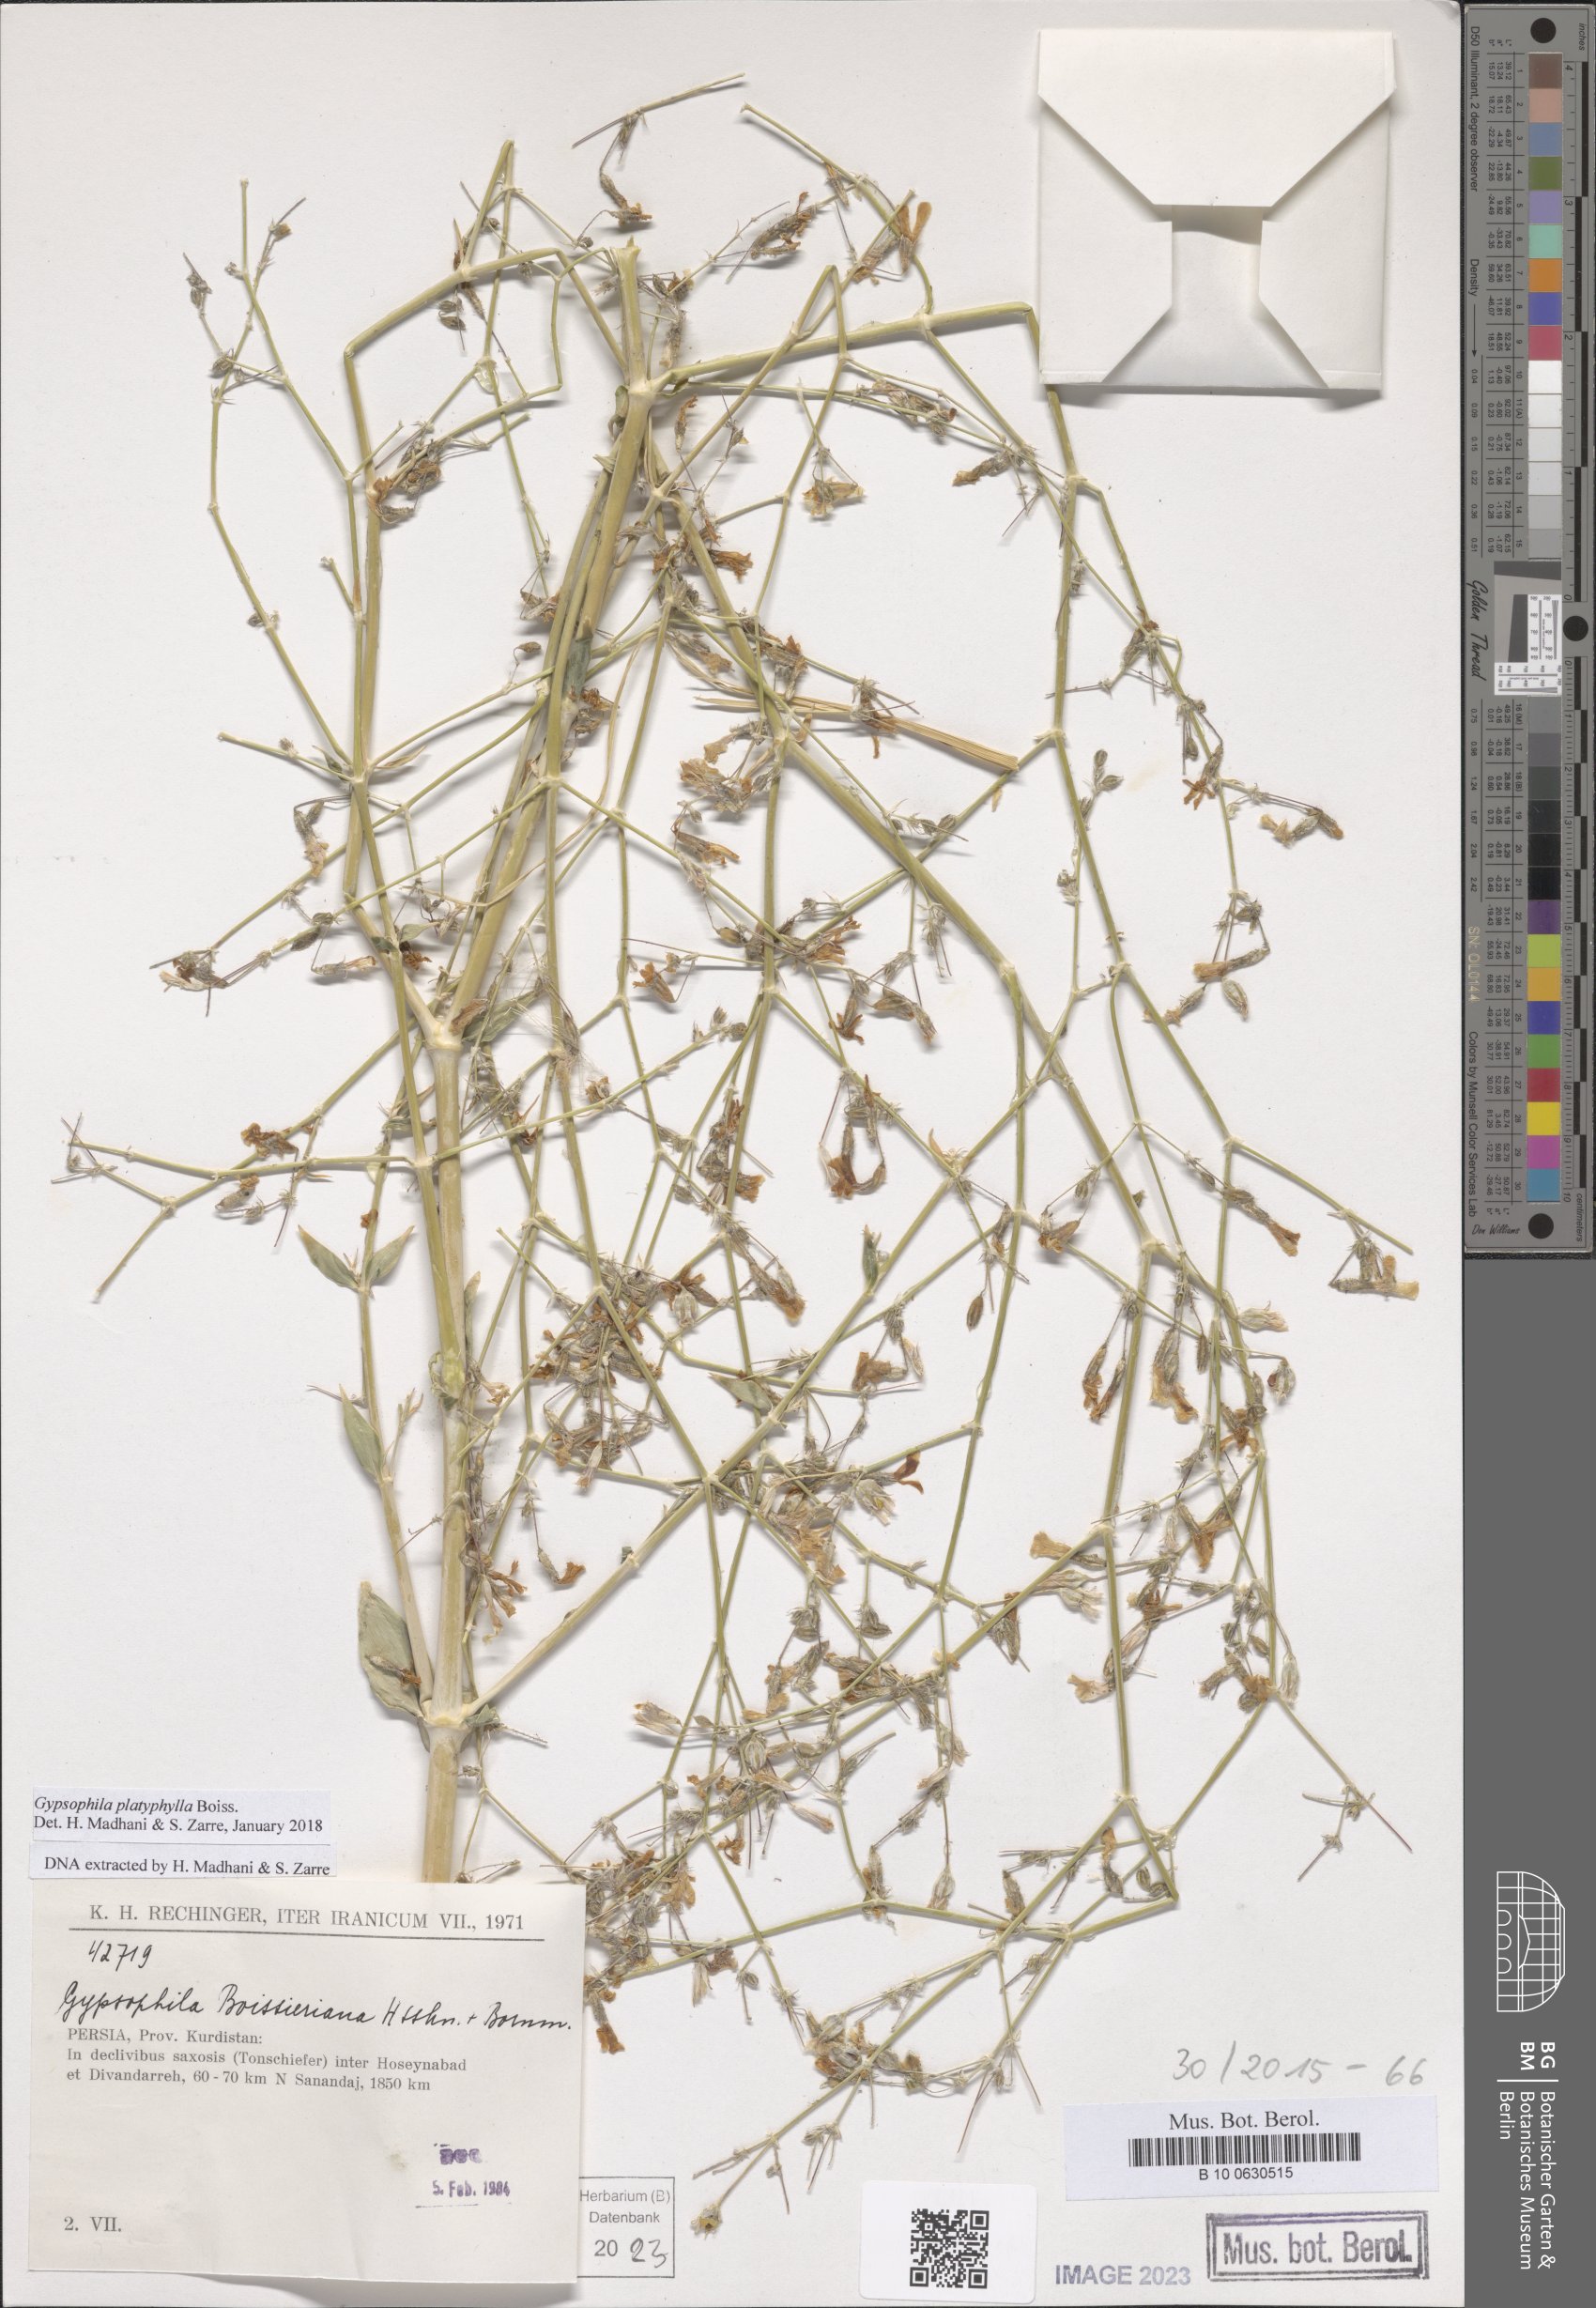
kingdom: Plantae
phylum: Tracheophyta
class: Magnoliopsida
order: Caryophyllales
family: Caryophyllaceae
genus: Gypsophila
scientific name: Gypsophila platyphylla
